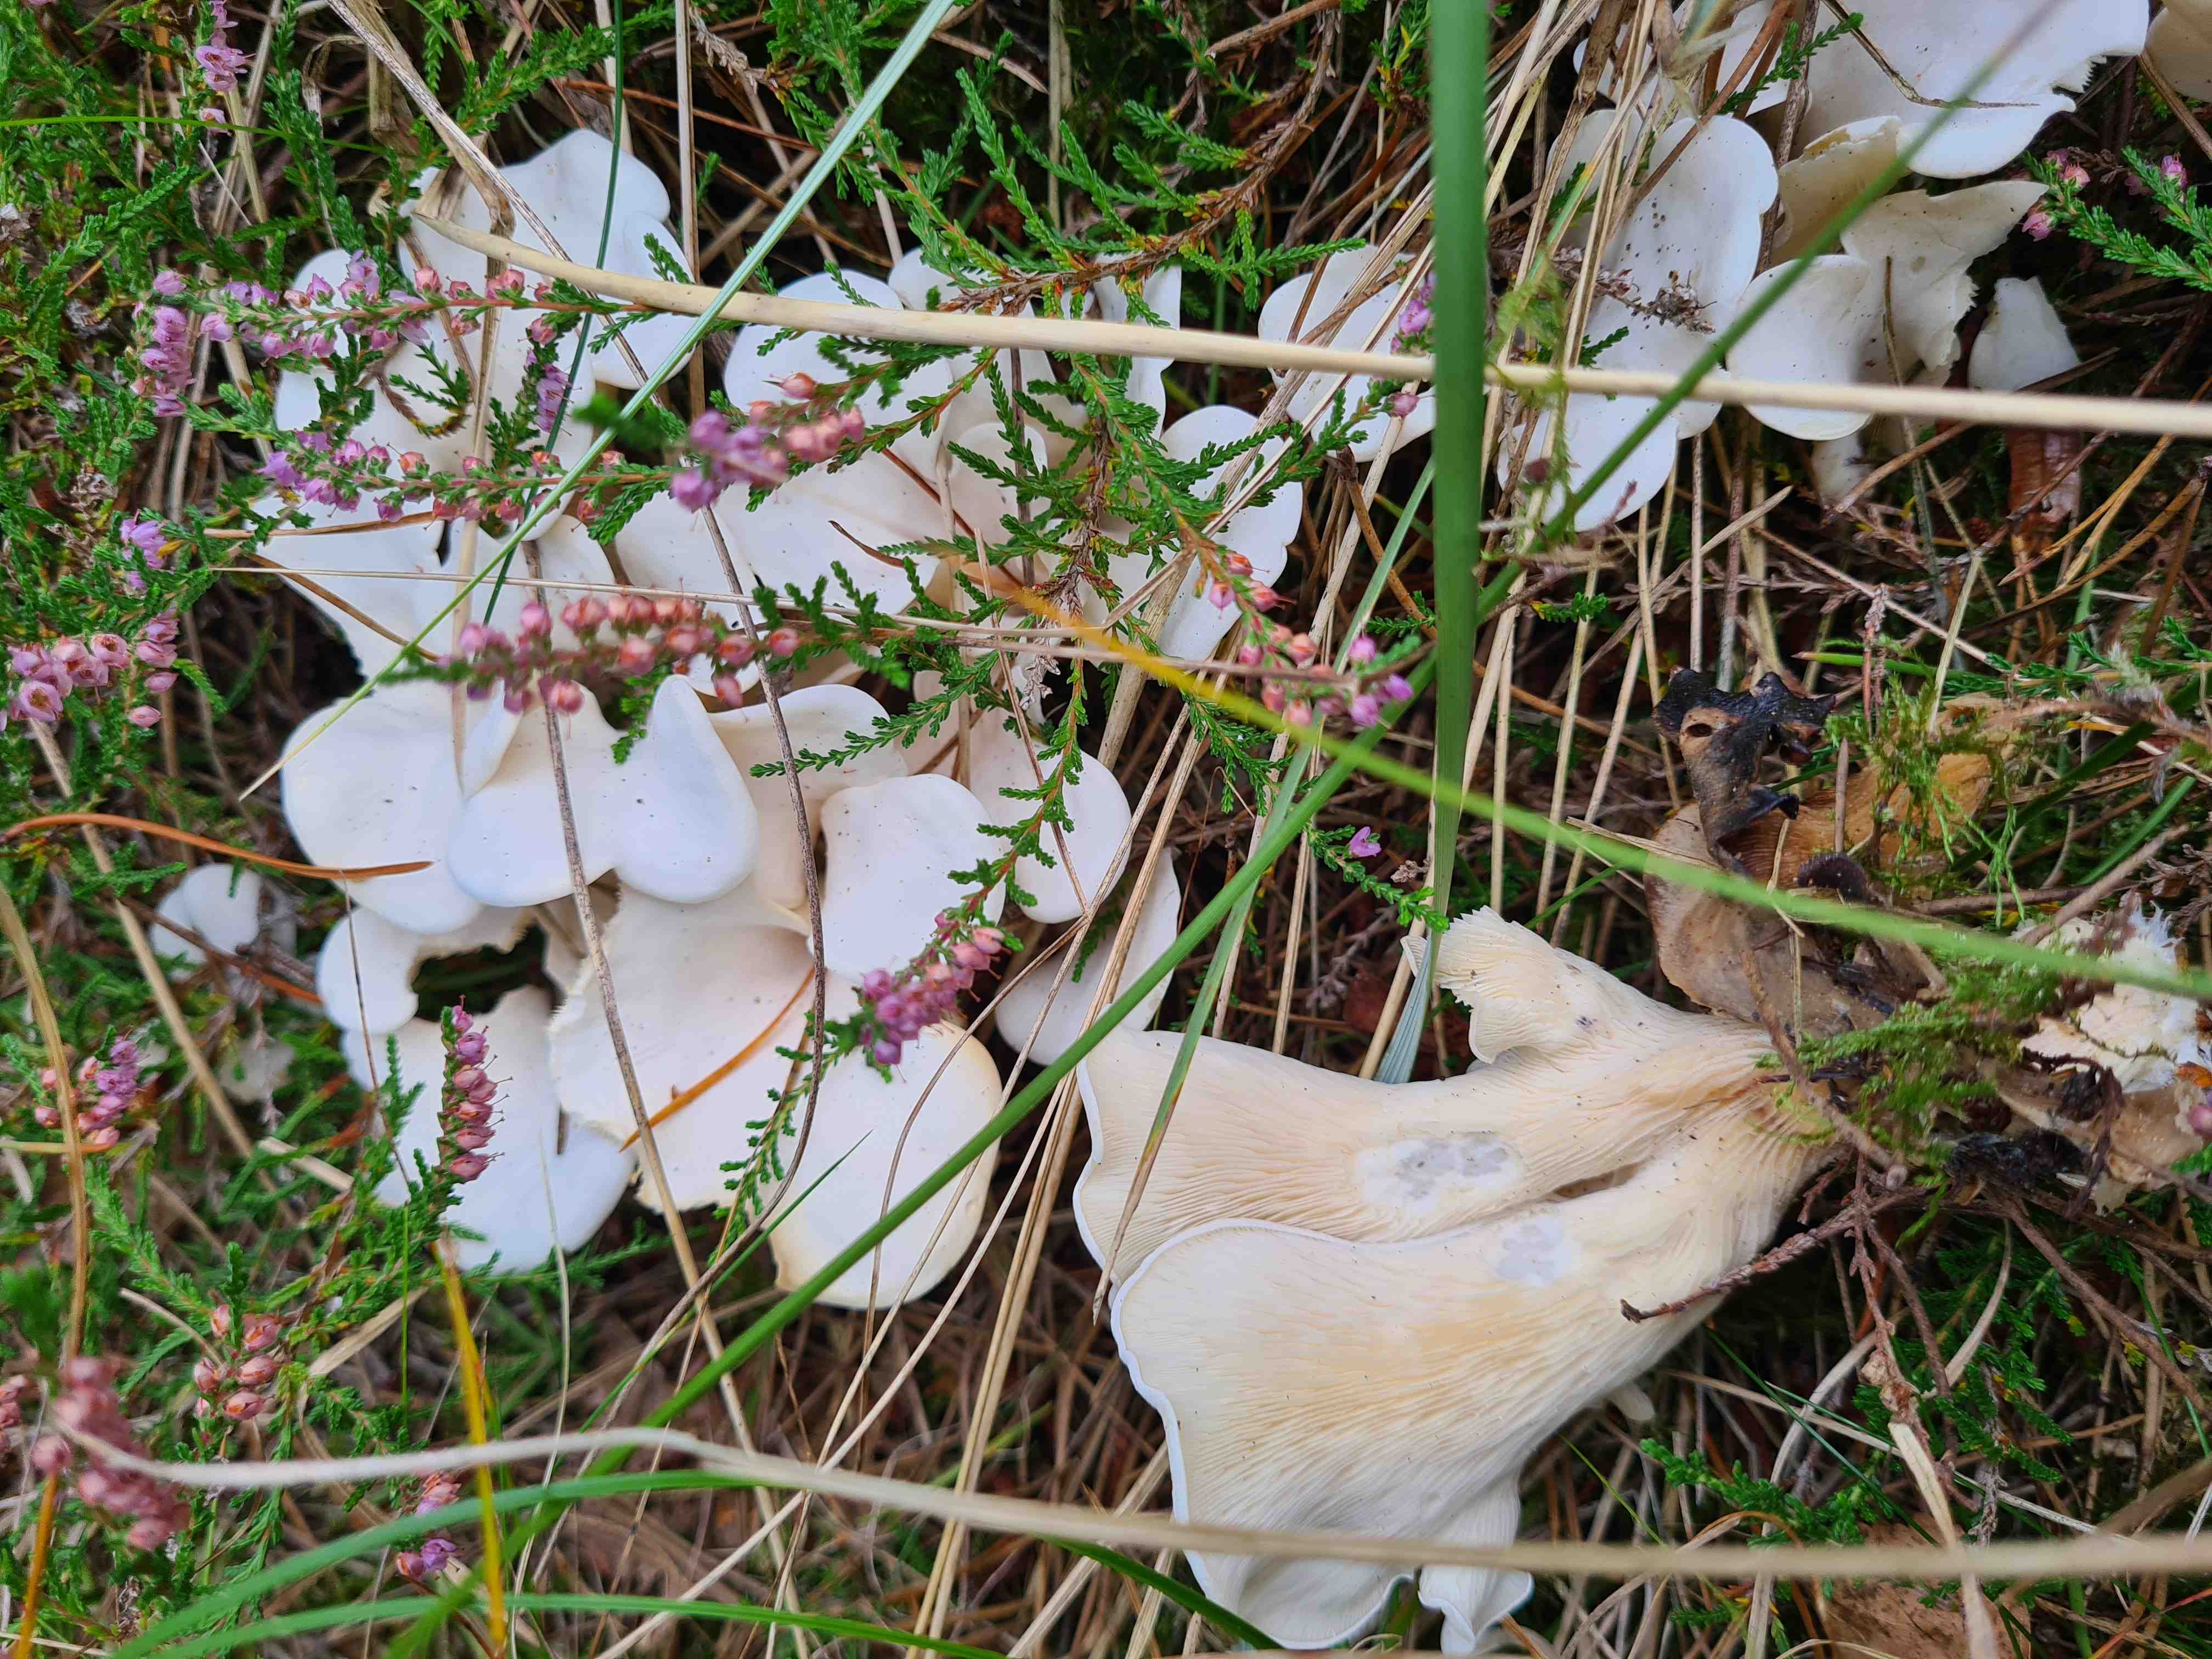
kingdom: Fungi
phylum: Basidiomycota
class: Agaricomycetes
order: Agaricales
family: Marasmiaceae
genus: Pleurocybella
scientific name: Pleurocybella porrigens
